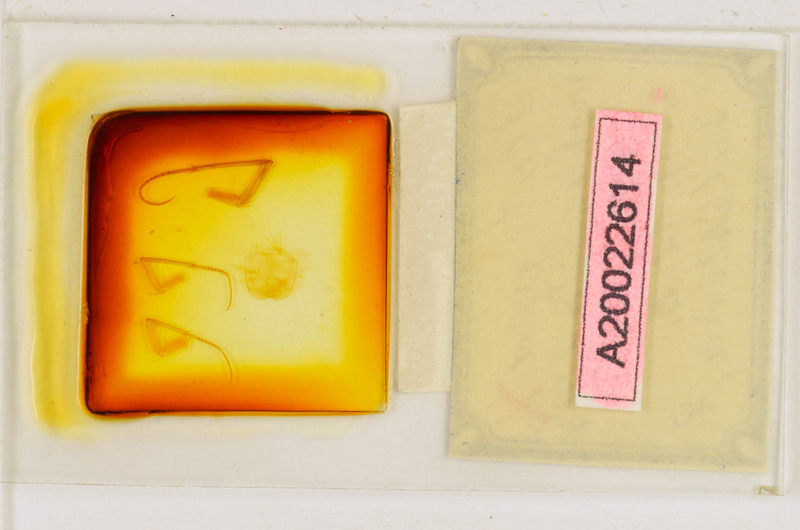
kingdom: Animalia
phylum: Arthropoda
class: Chilopoda
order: Scutigeromorpha
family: Scutigeridae
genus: Scutigera
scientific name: Scutigera coleoptrata
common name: House centipede
